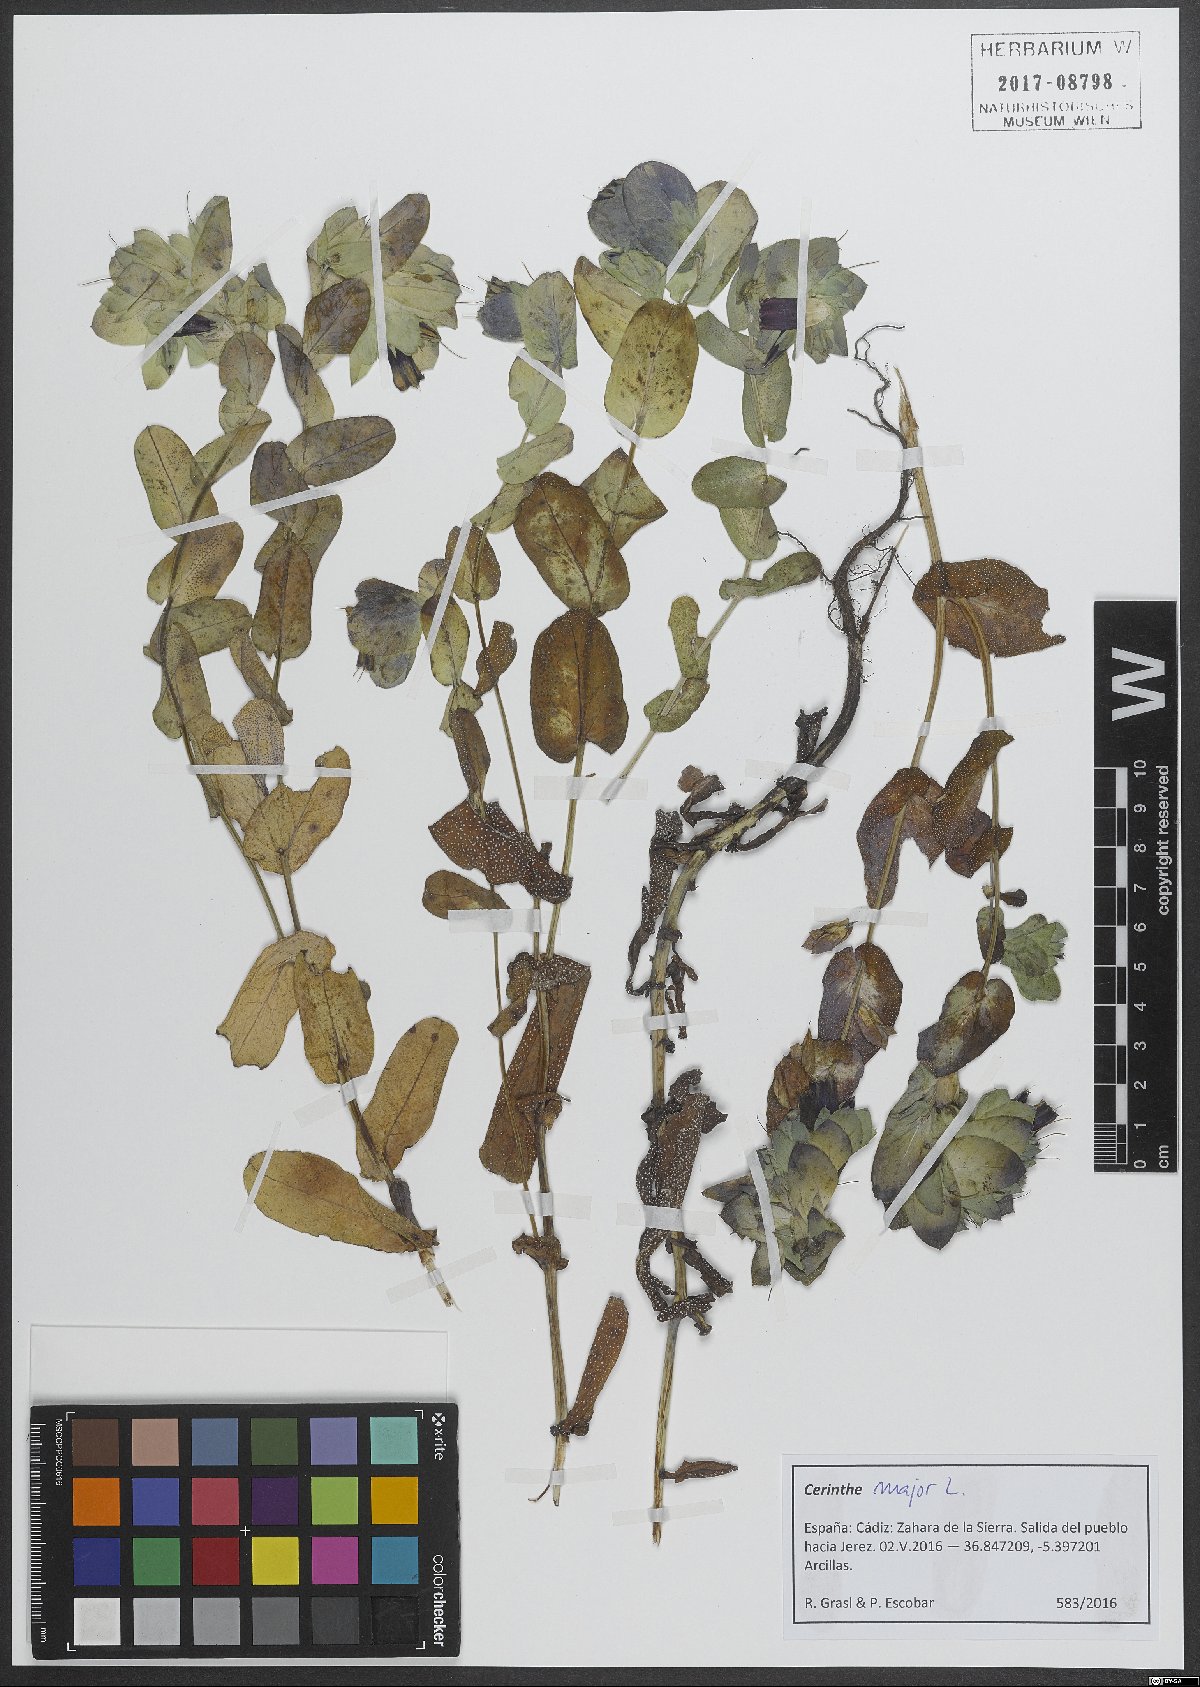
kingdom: Plantae
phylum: Tracheophyta
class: Magnoliopsida
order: Boraginales
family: Boraginaceae
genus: Cerinthe
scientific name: Cerinthe major
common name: Greater honeywort
